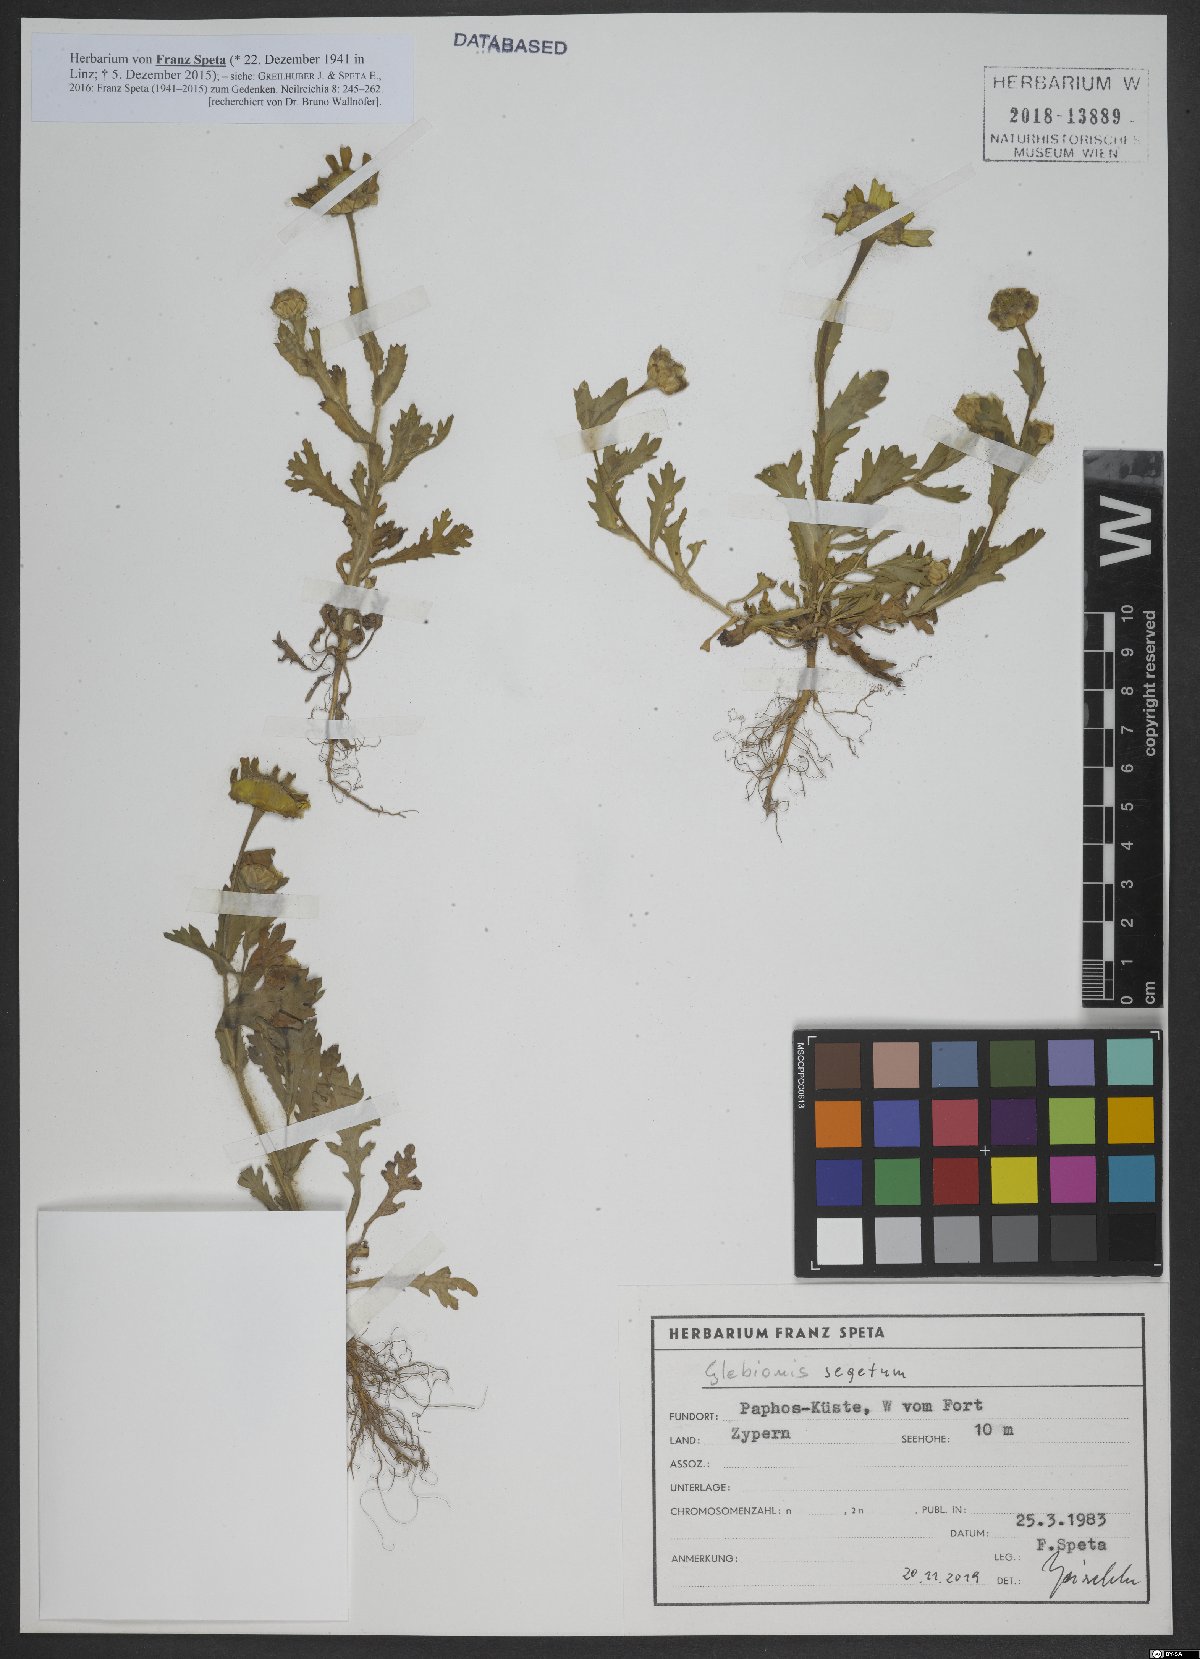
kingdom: Plantae
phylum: Tracheophyta
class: Magnoliopsida
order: Asterales
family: Asteraceae
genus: Glebionis
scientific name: Glebionis segetum
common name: Corndaisy
